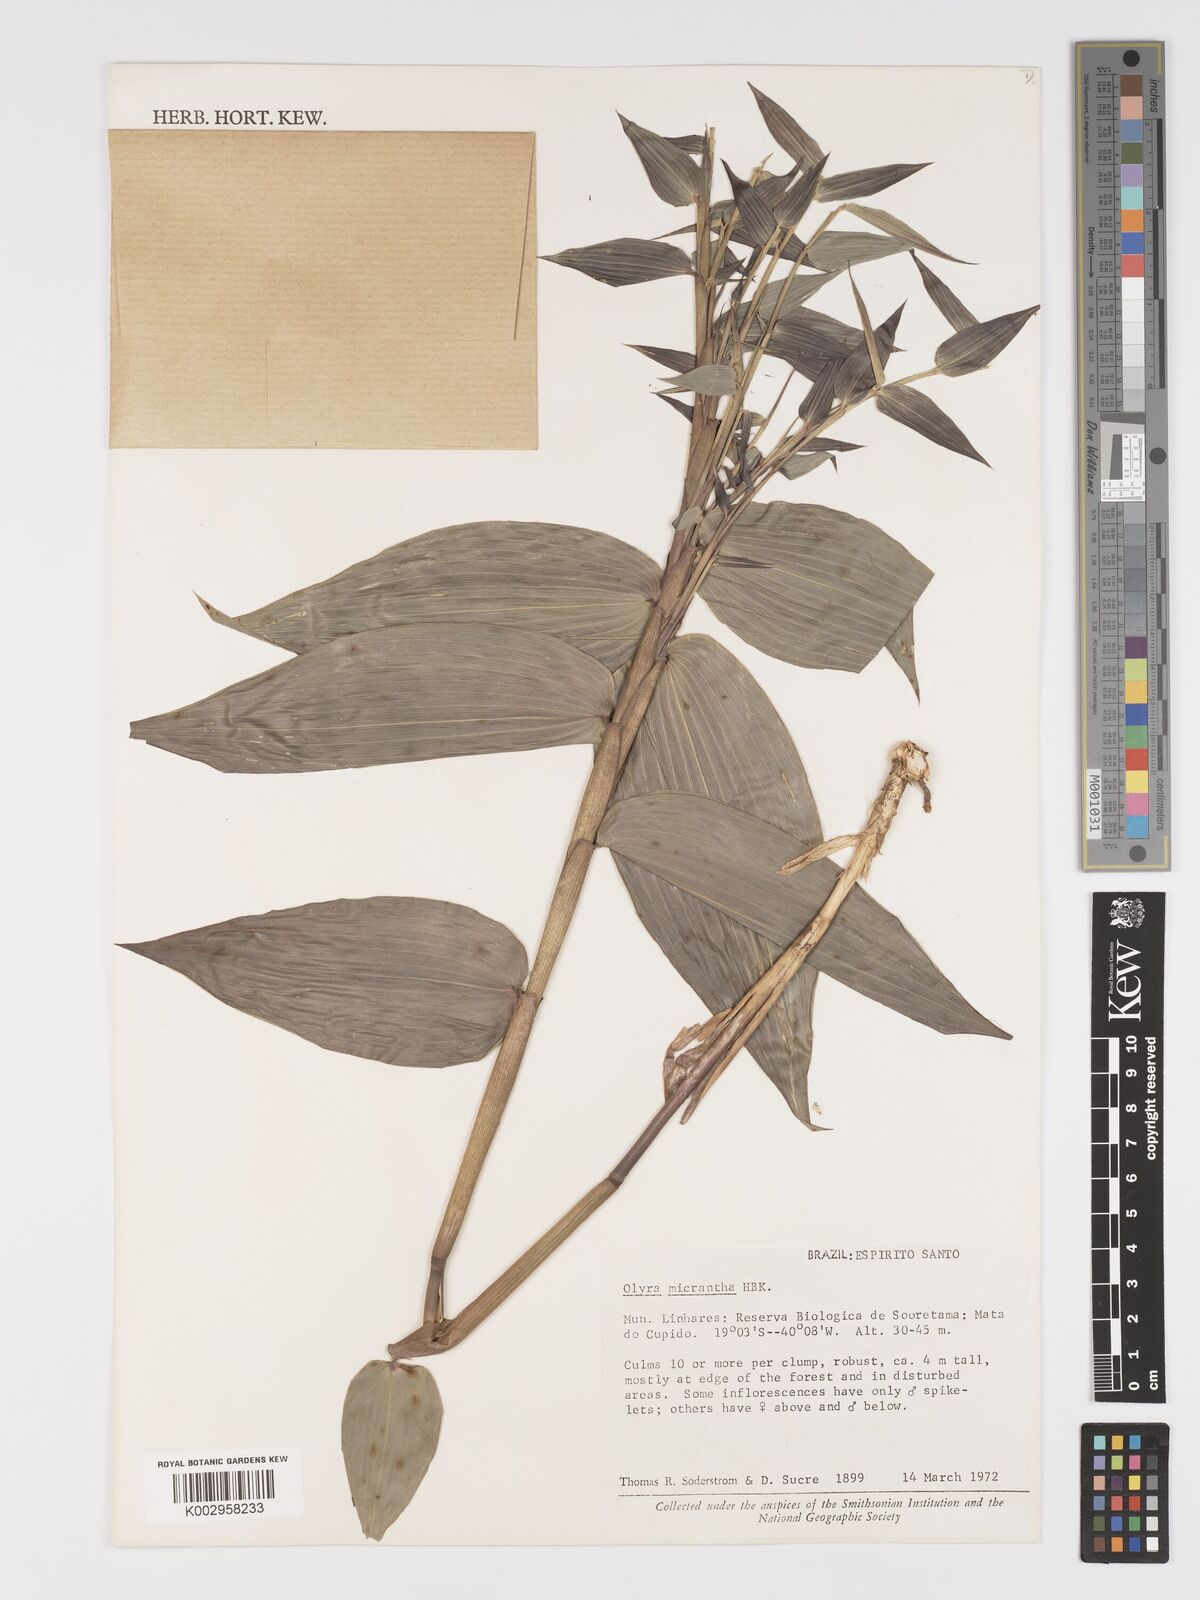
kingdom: Plantae
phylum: Tracheophyta
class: Liliopsida
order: Poales
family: Poaceae
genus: Taquara
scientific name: Taquara micrantha
